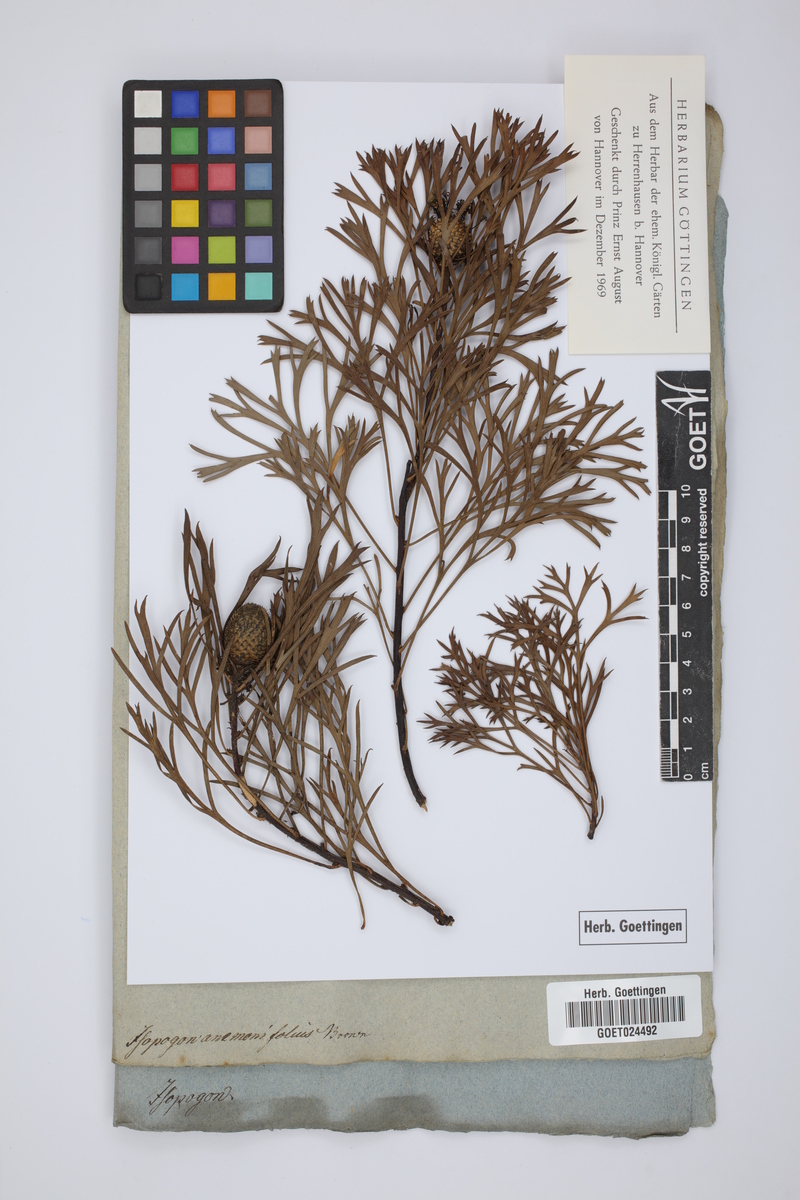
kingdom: Plantae
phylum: Tracheophyta
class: Magnoliopsida
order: Proteales
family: Proteaceae
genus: Isopogon
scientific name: Isopogon anemonifolius
